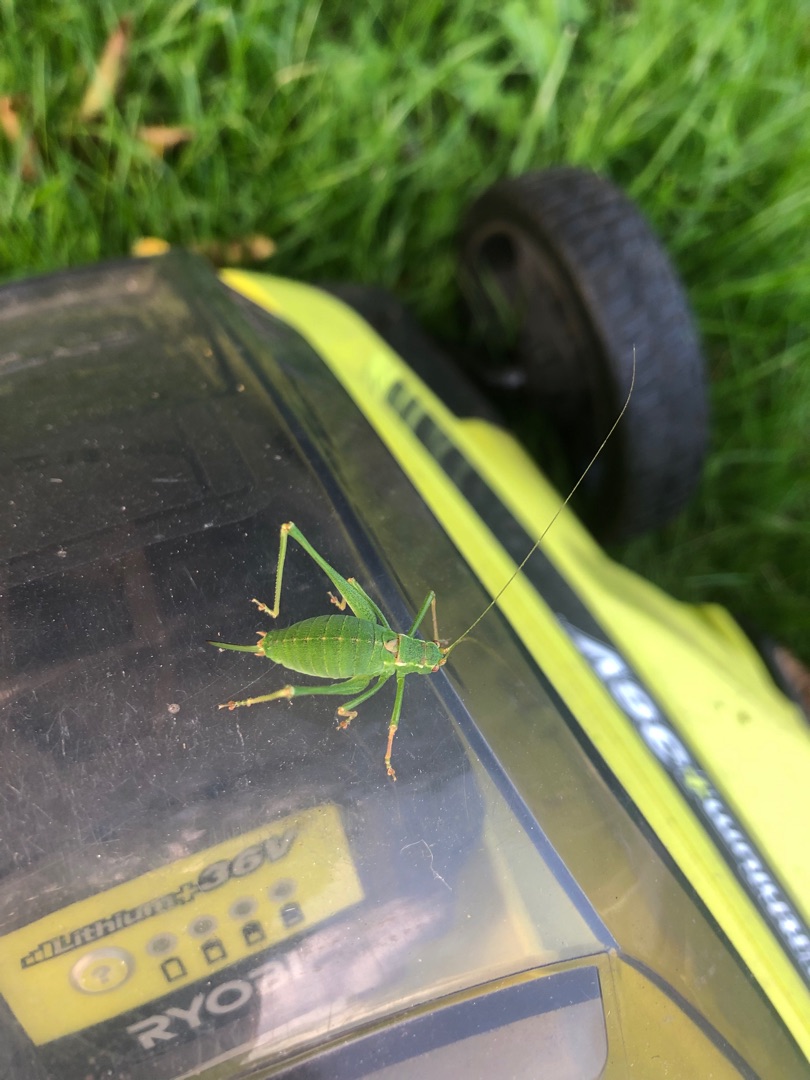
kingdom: Animalia
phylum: Arthropoda
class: Insecta
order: Orthoptera
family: Tettigoniidae
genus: Leptophyes
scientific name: Leptophyes punctatissima
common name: Krumknivgræshoppe
